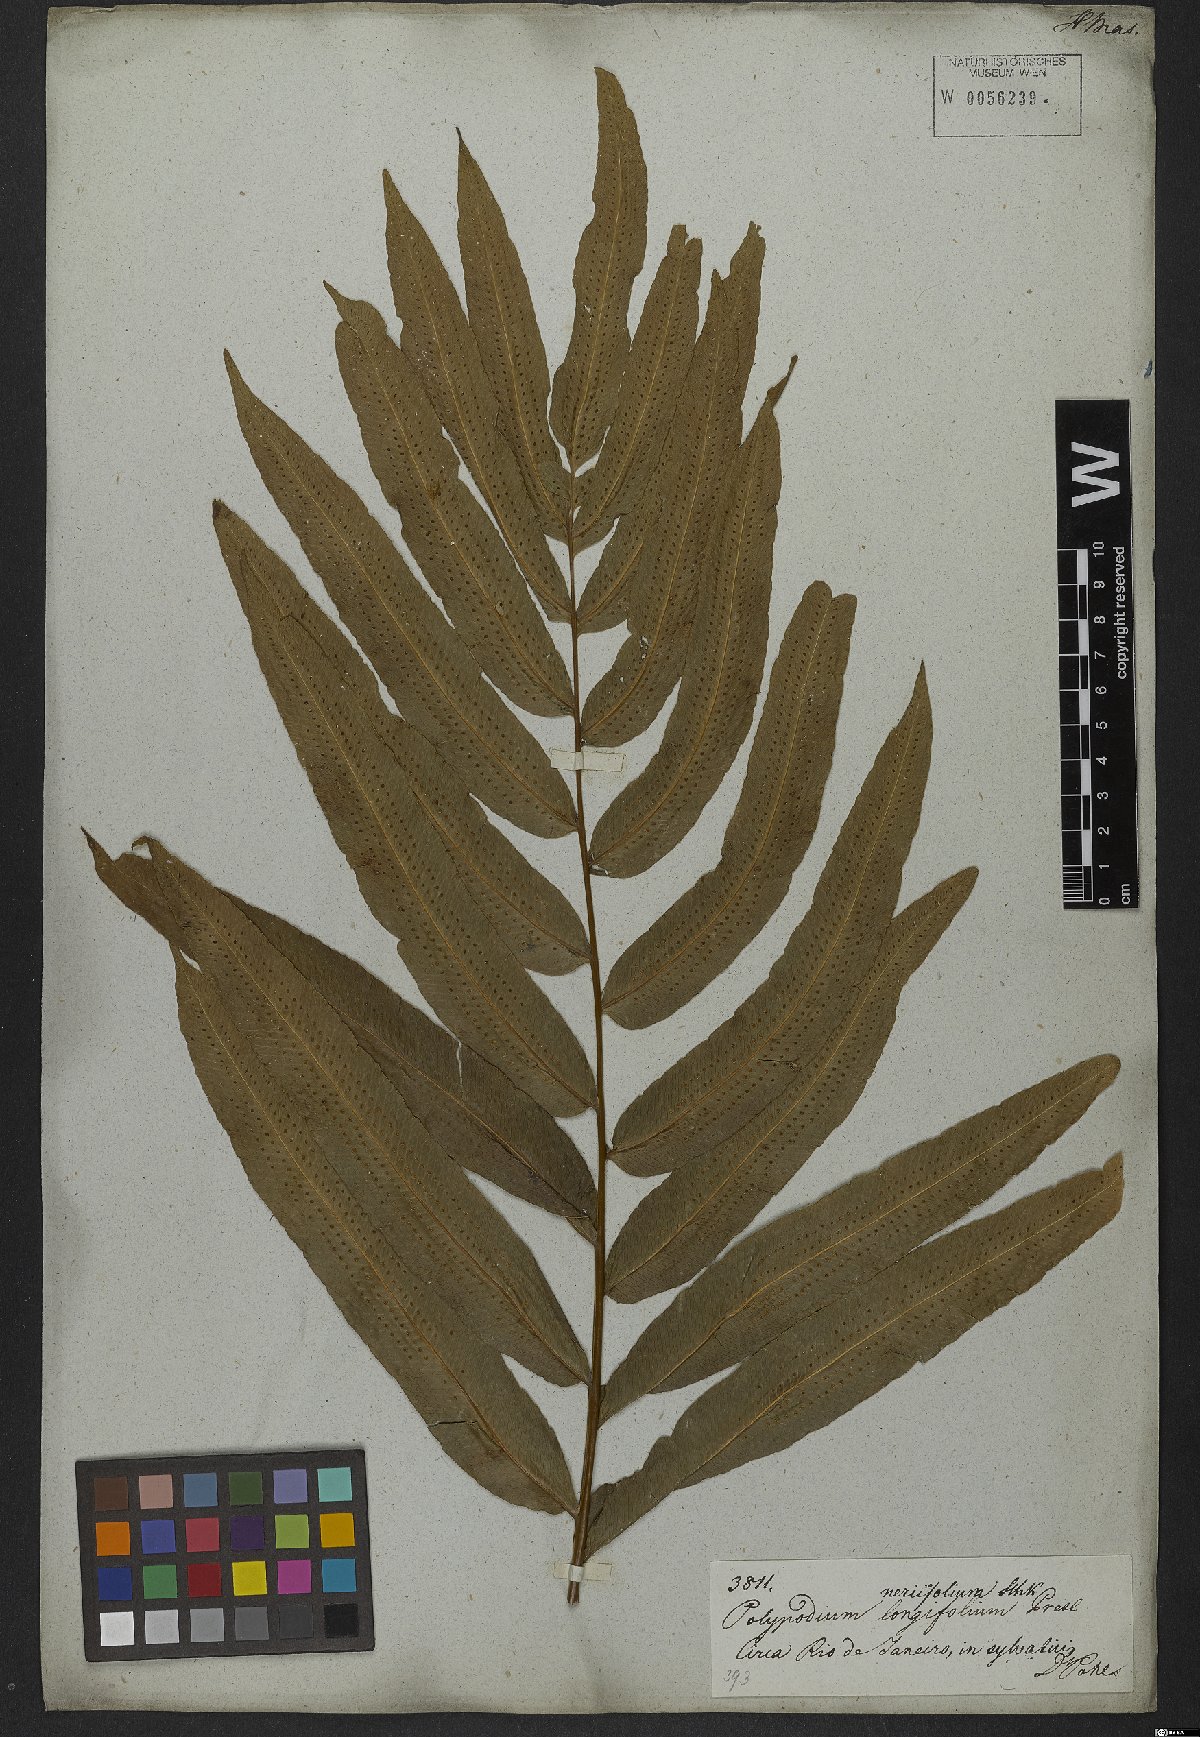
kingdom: Plantae
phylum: Tracheophyta
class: Polypodiopsida
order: Polypodiales
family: Polypodiaceae
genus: Serpocaulon
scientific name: Serpocaulon triseriale
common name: Angle-vein fern
